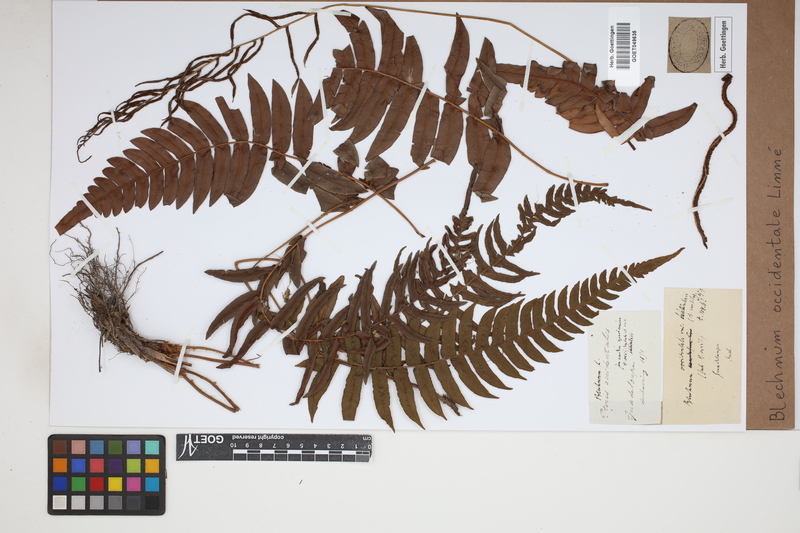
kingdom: Plantae
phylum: Tracheophyta
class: Polypodiopsida
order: Polypodiales
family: Blechnaceae
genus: Blechnum
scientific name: Blechnum occidentale
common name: Hammock fern
